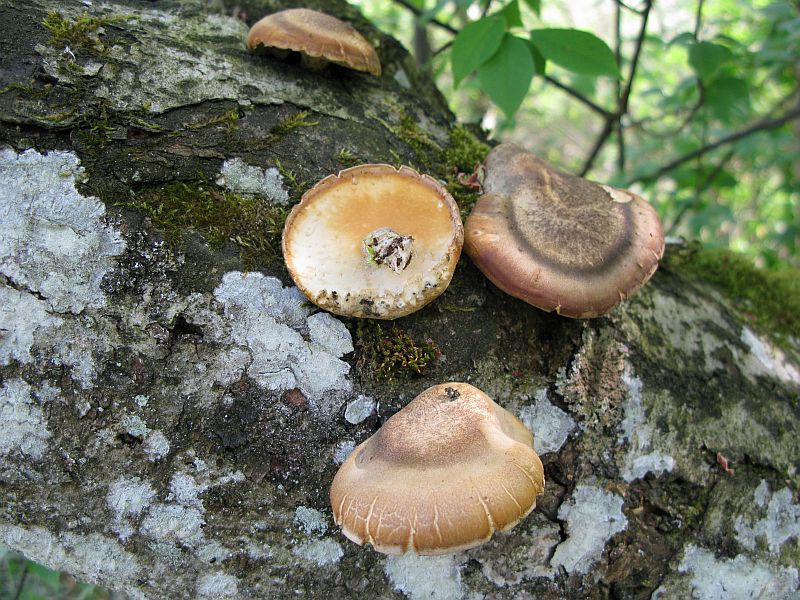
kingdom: Fungi
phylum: Basidiomycota
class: Agaricomycetes
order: Polyporales
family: Polyporaceae
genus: Lentinus
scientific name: Lentinus substrictus
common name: forårs-stilkporesvamp
